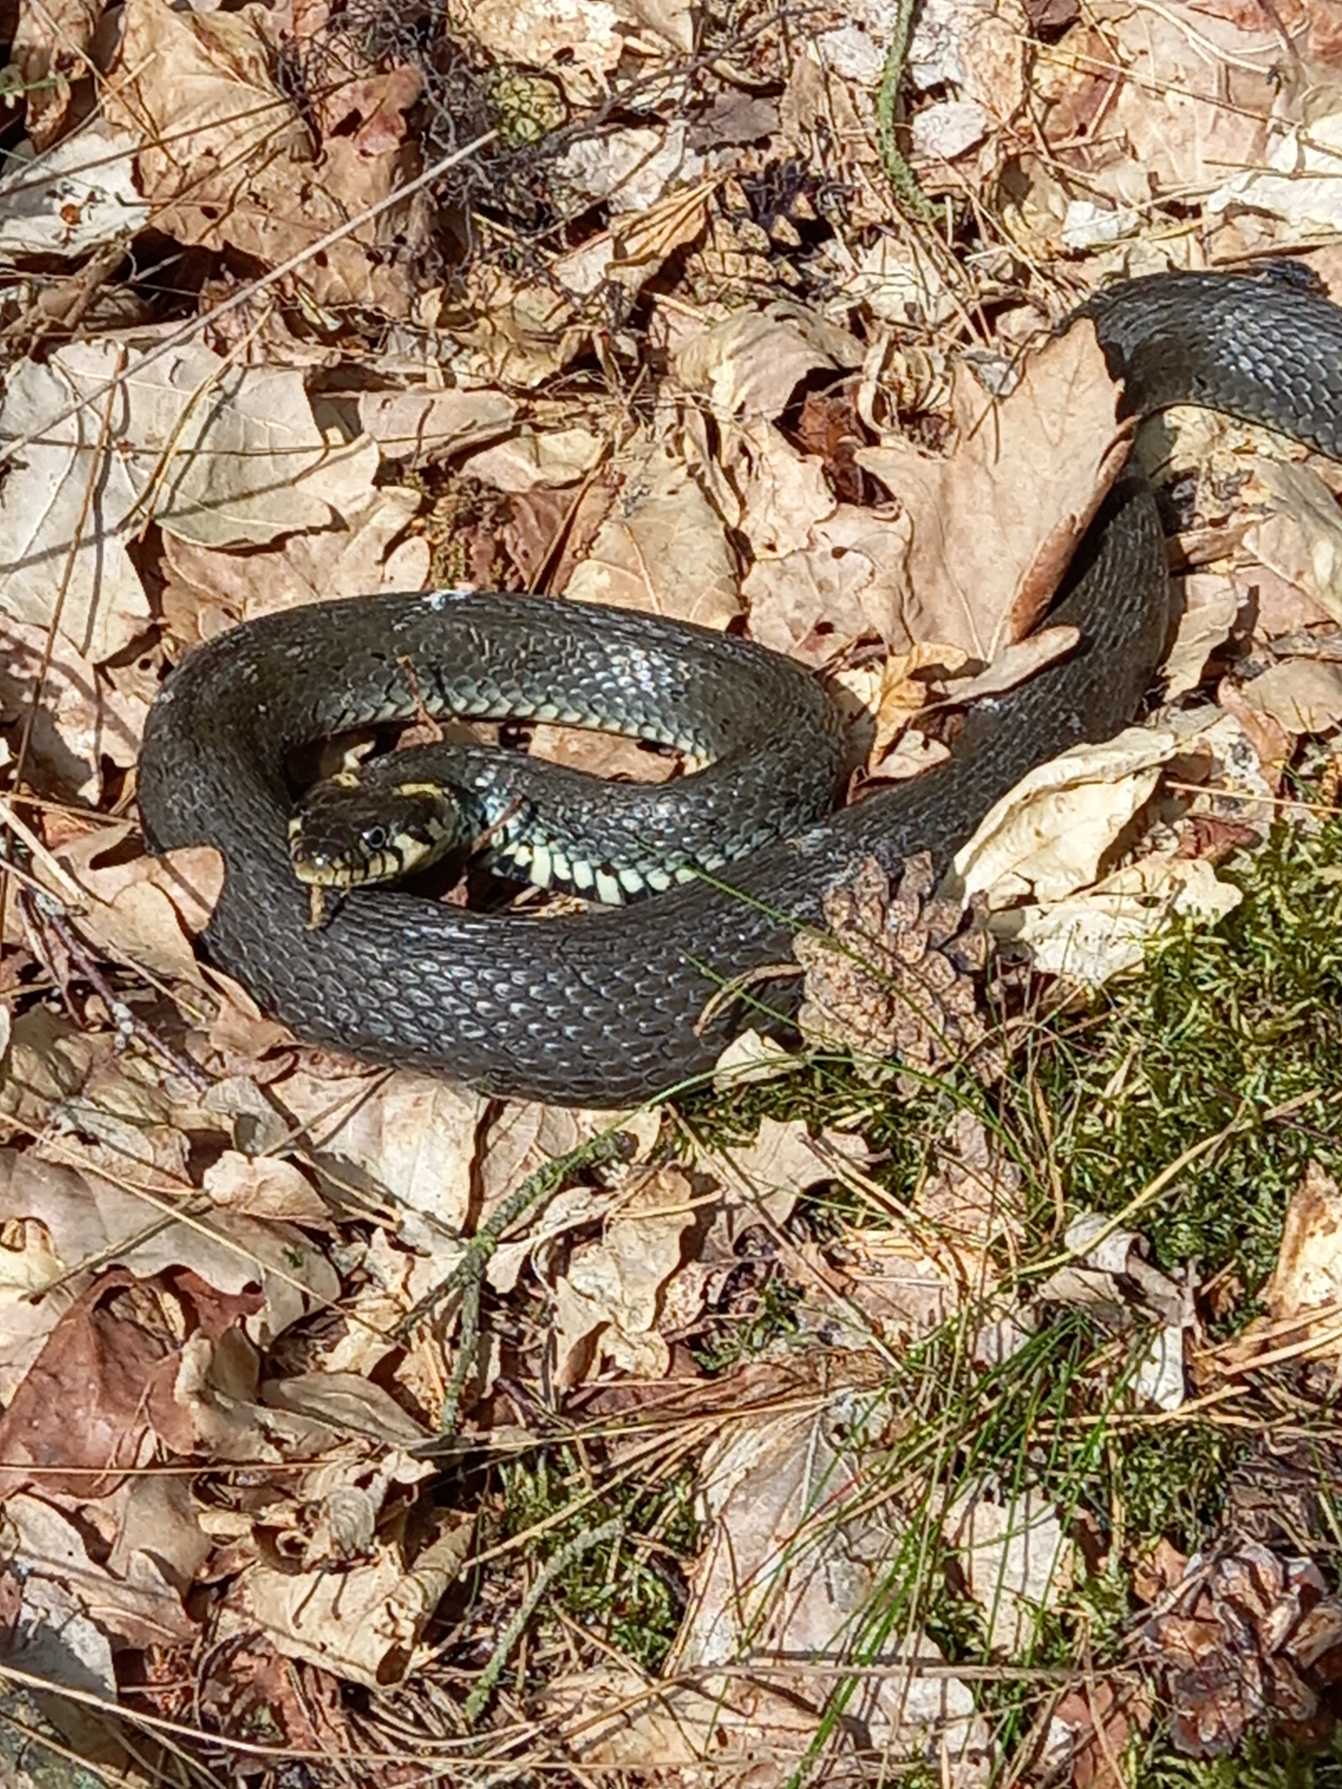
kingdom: Animalia
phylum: Chordata
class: Squamata
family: Colubridae
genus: Natrix
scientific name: Natrix natrix
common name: Snog
